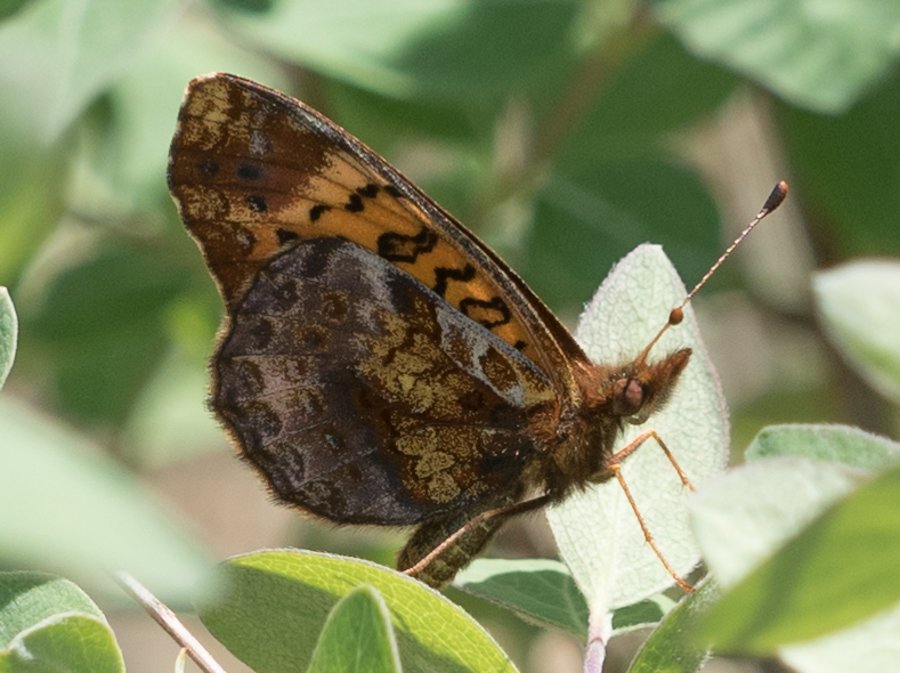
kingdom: Animalia
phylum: Arthropoda
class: Insecta
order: Lepidoptera
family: Nymphalidae
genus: Clossiana
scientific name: Clossiana toddi
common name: Meadow Fritillary
